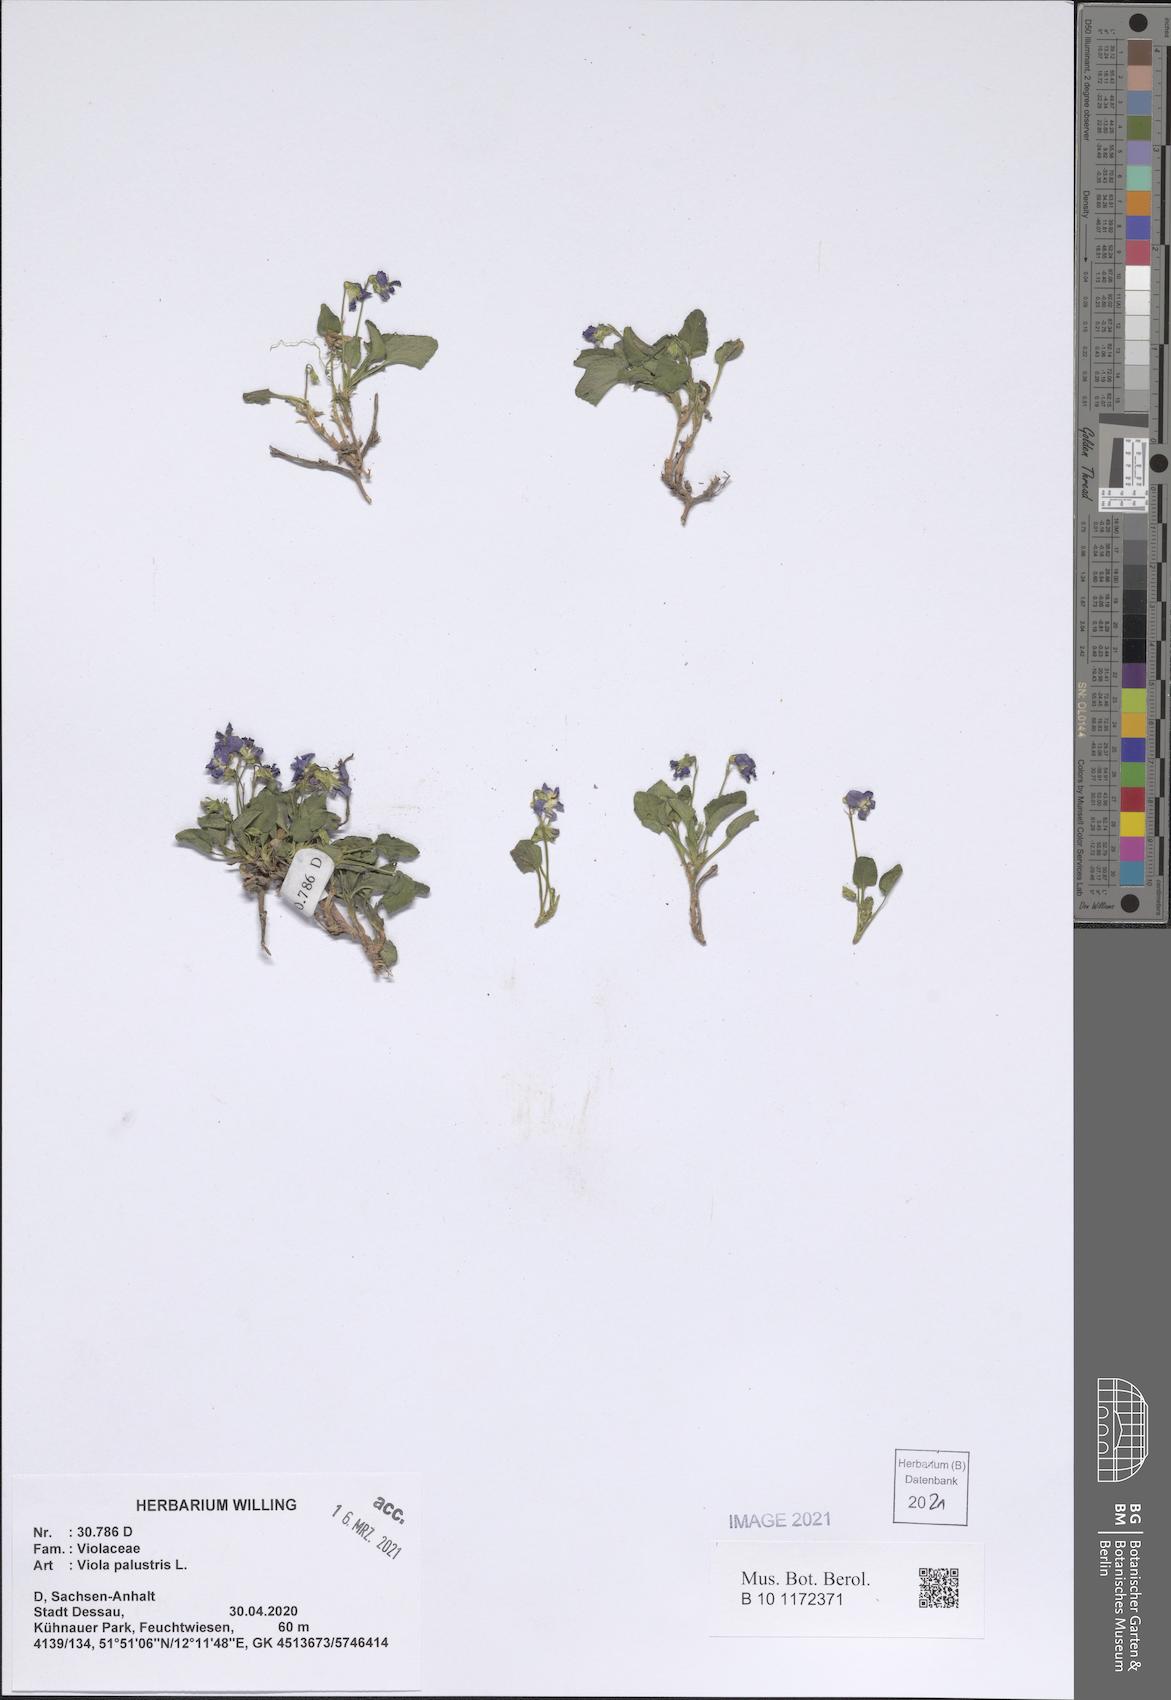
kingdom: Plantae
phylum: Tracheophyta
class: Magnoliopsida
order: Malpighiales
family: Violaceae
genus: Viola
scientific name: Viola palustris
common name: Marsh violet
